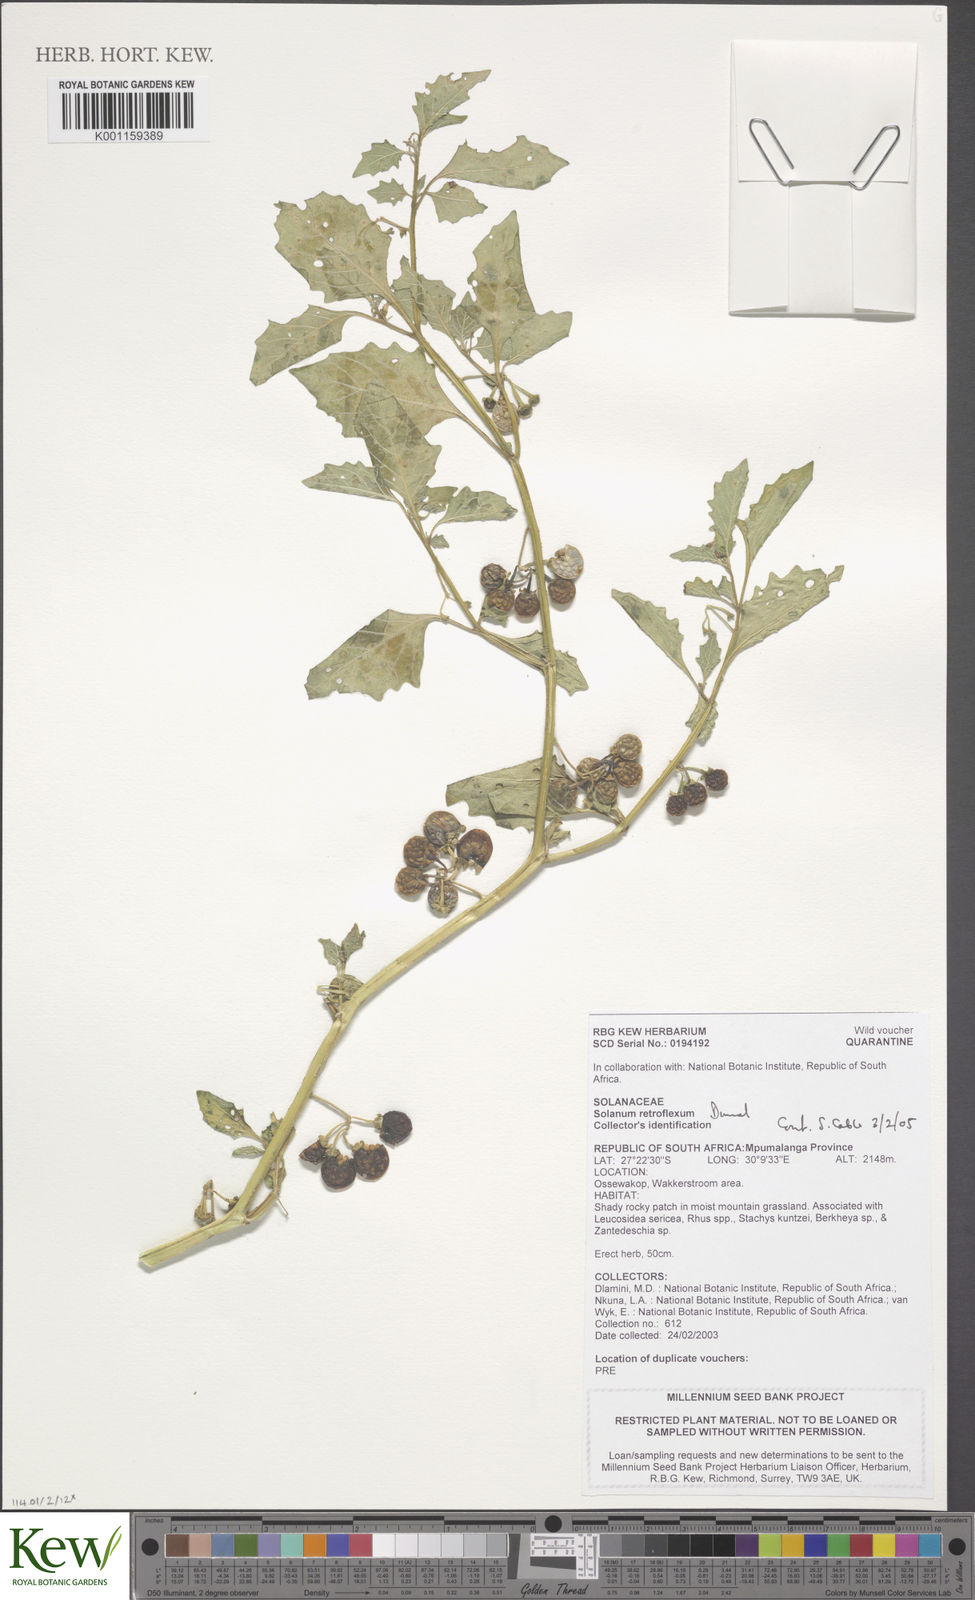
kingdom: Plantae
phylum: Tracheophyta
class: Magnoliopsida
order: Solanales
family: Solanaceae
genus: Solanum
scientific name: Solanum retroflexum
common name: Wonderberry
